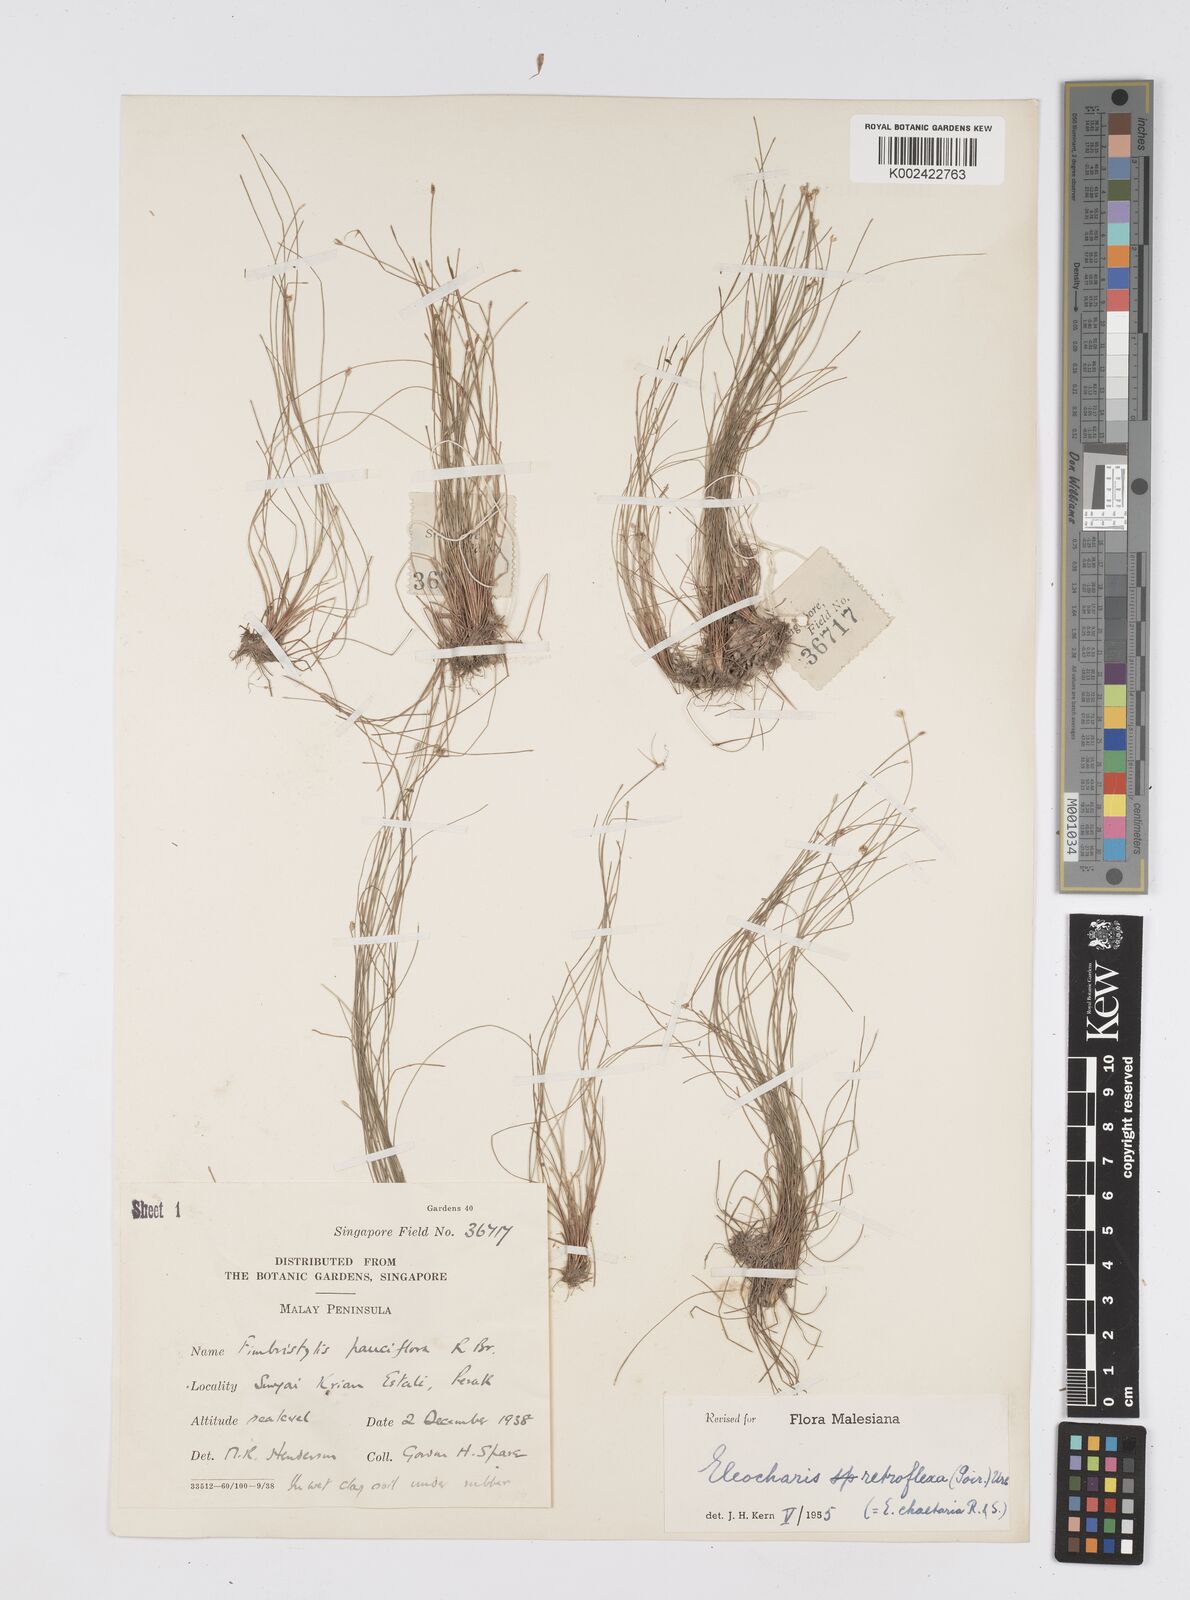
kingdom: Plantae
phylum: Tracheophyta
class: Liliopsida
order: Poales
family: Cyperaceae
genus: Eleocharis
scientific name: Eleocharis retroflexa
